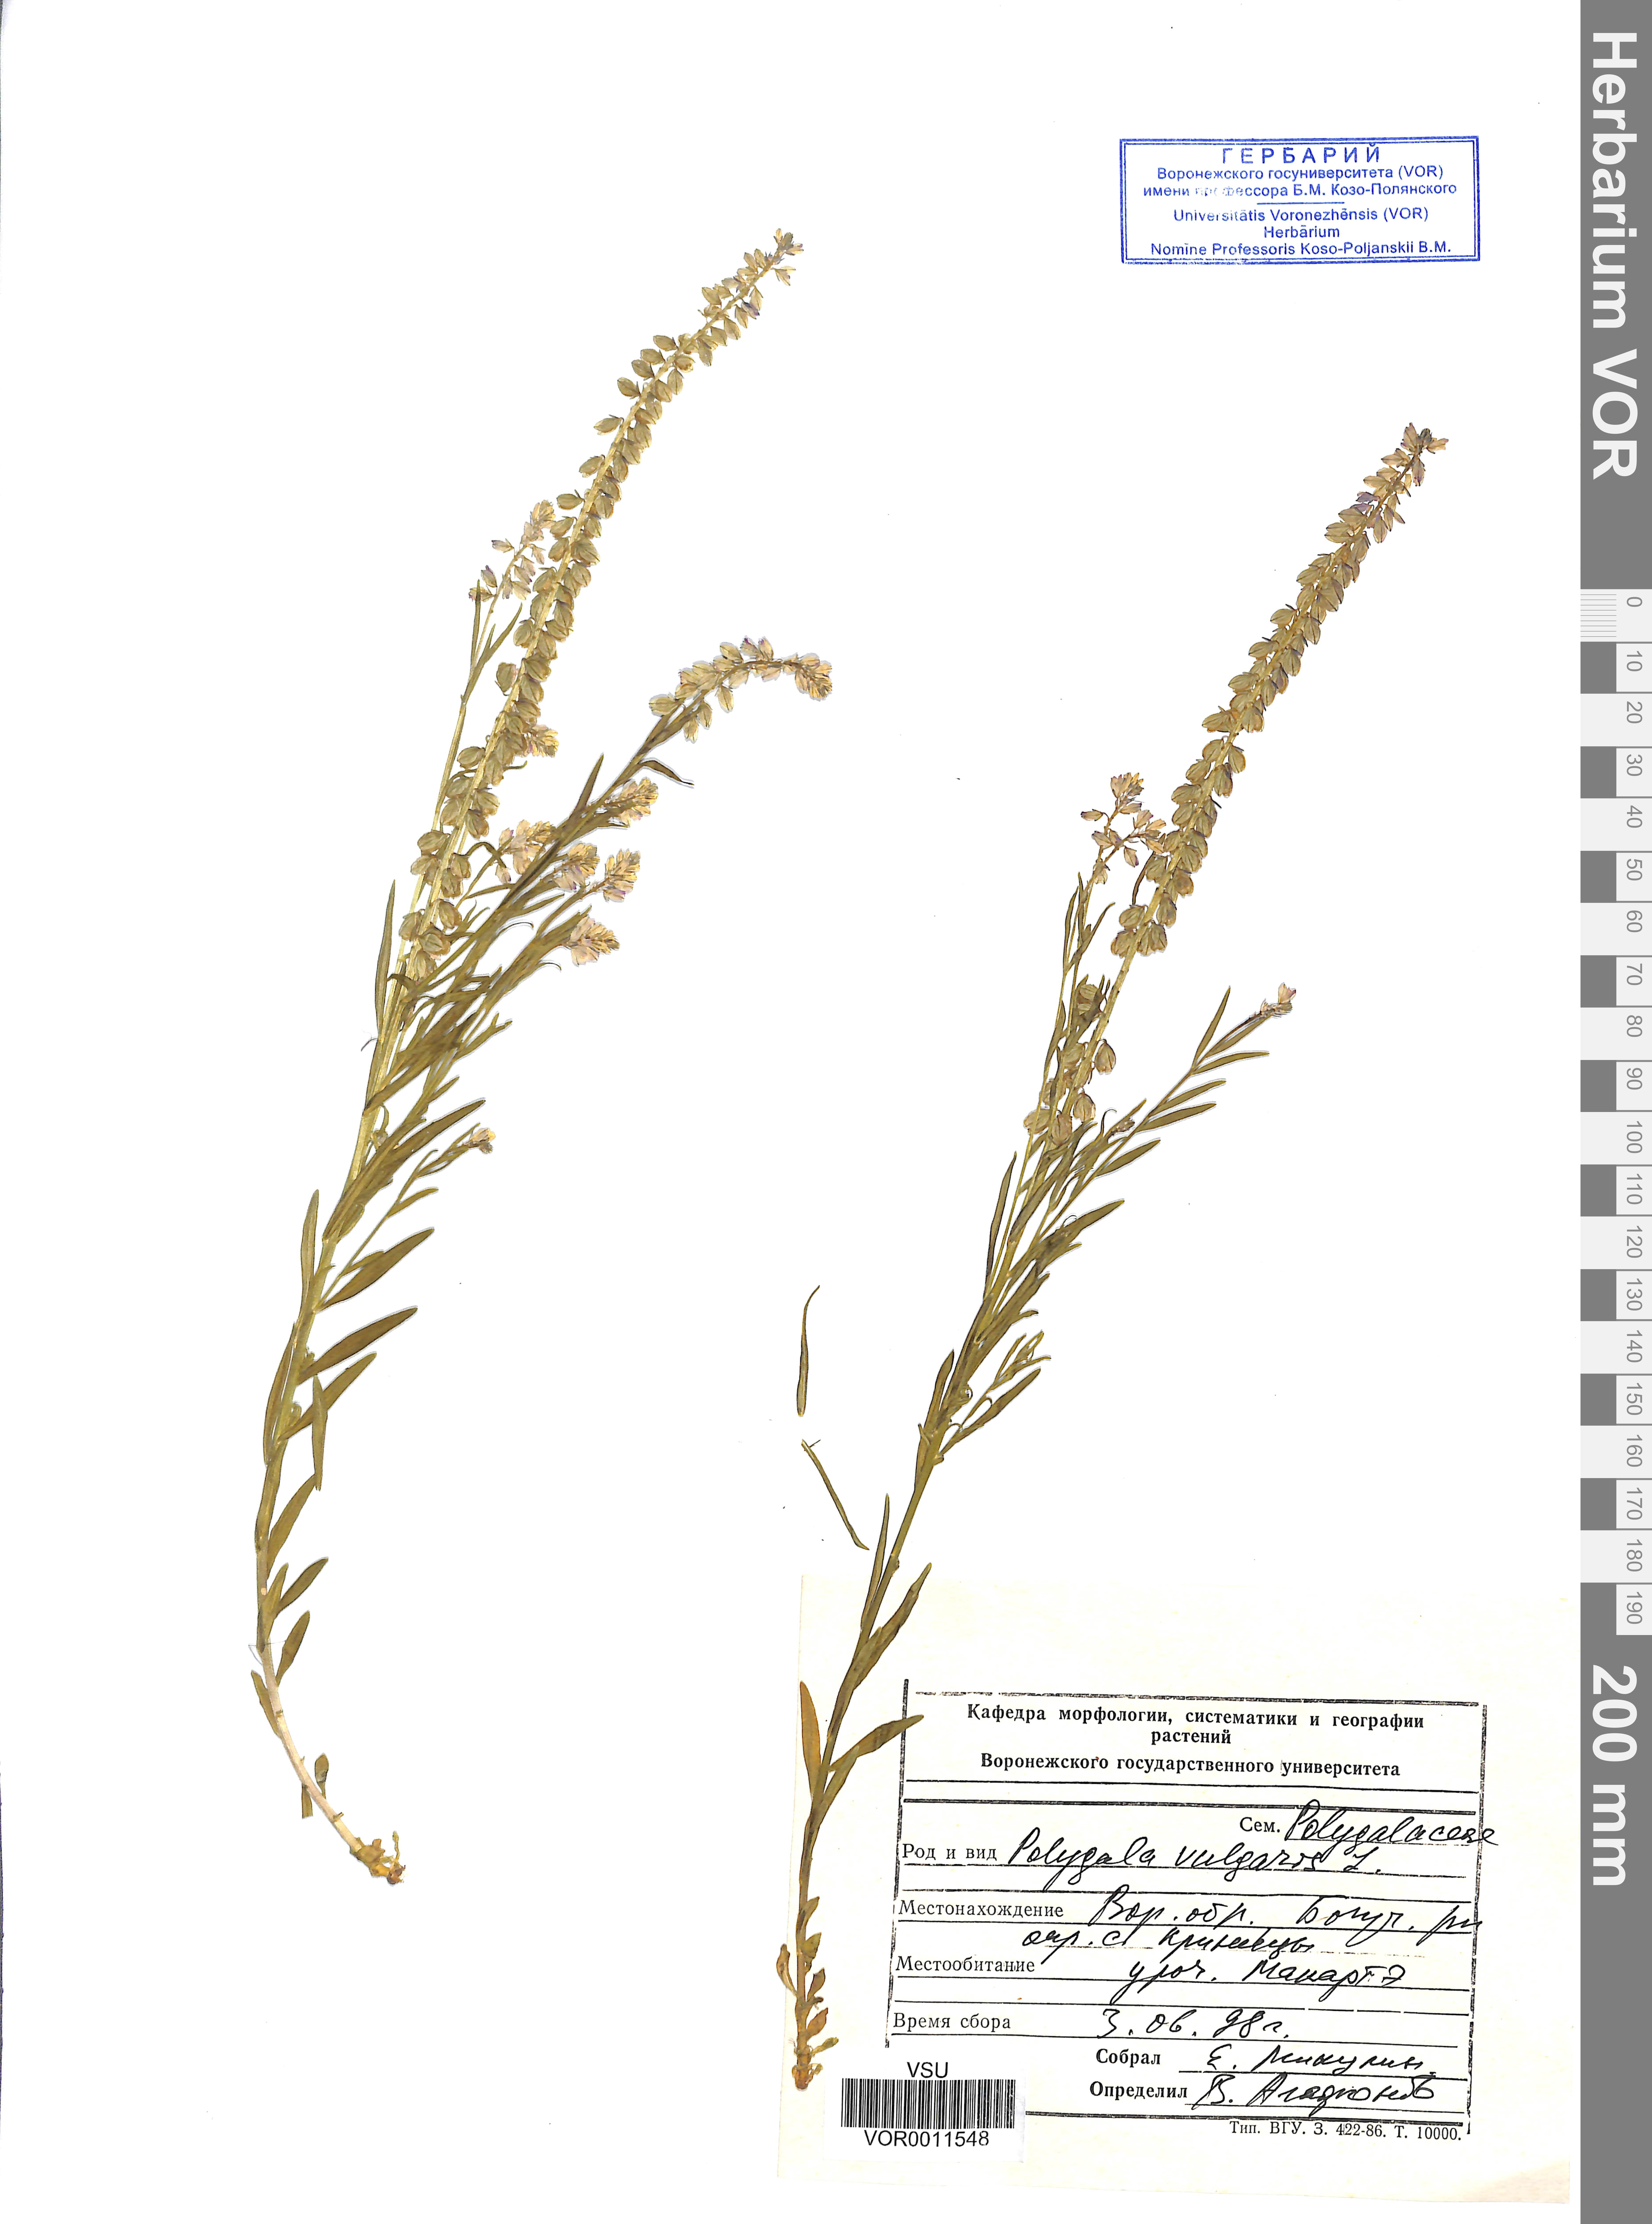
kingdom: Plantae
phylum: Tracheophyta
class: Magnoliopsida
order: Fabales
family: Polygalaceae
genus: Polygala
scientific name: Polygala vulgaris
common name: Common milkwort
